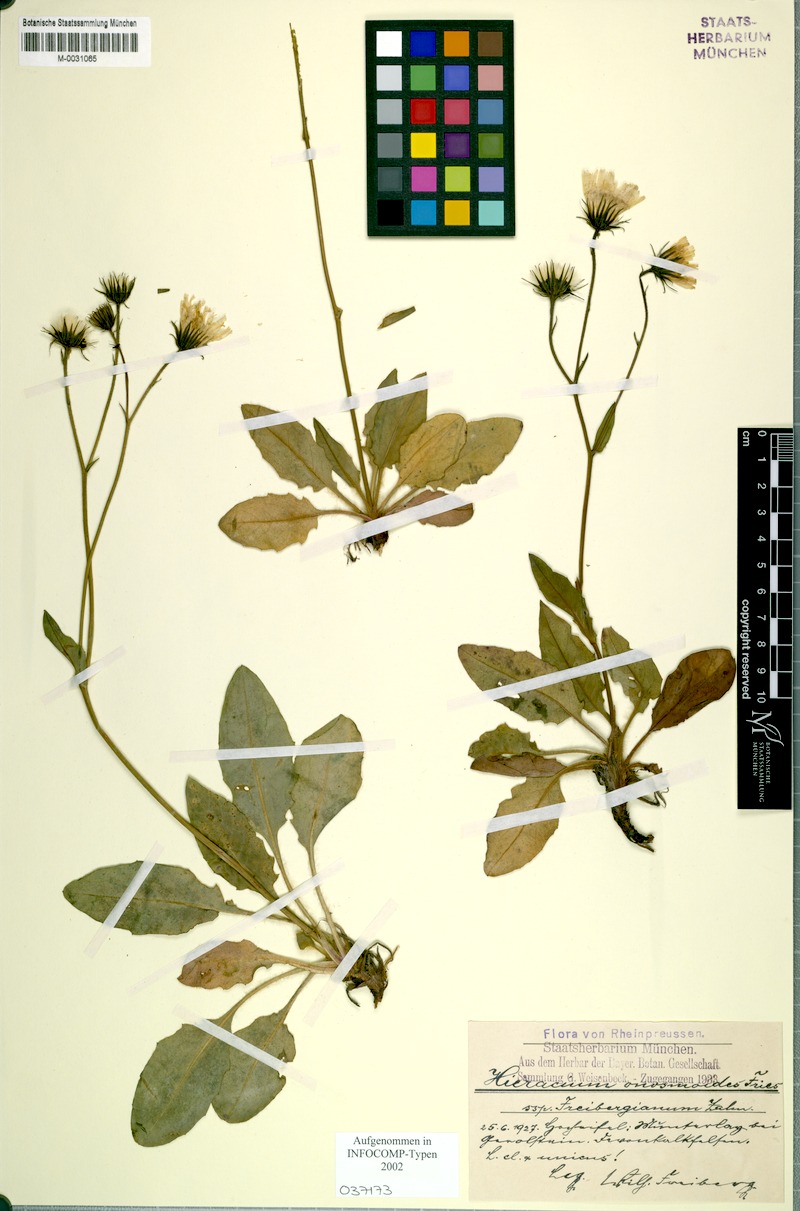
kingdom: Plantae
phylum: Tracheophyta
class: Magnoliopsida
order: Asterales
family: Asteraceae
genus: Hieracium
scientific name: Hieracium onosmoides
